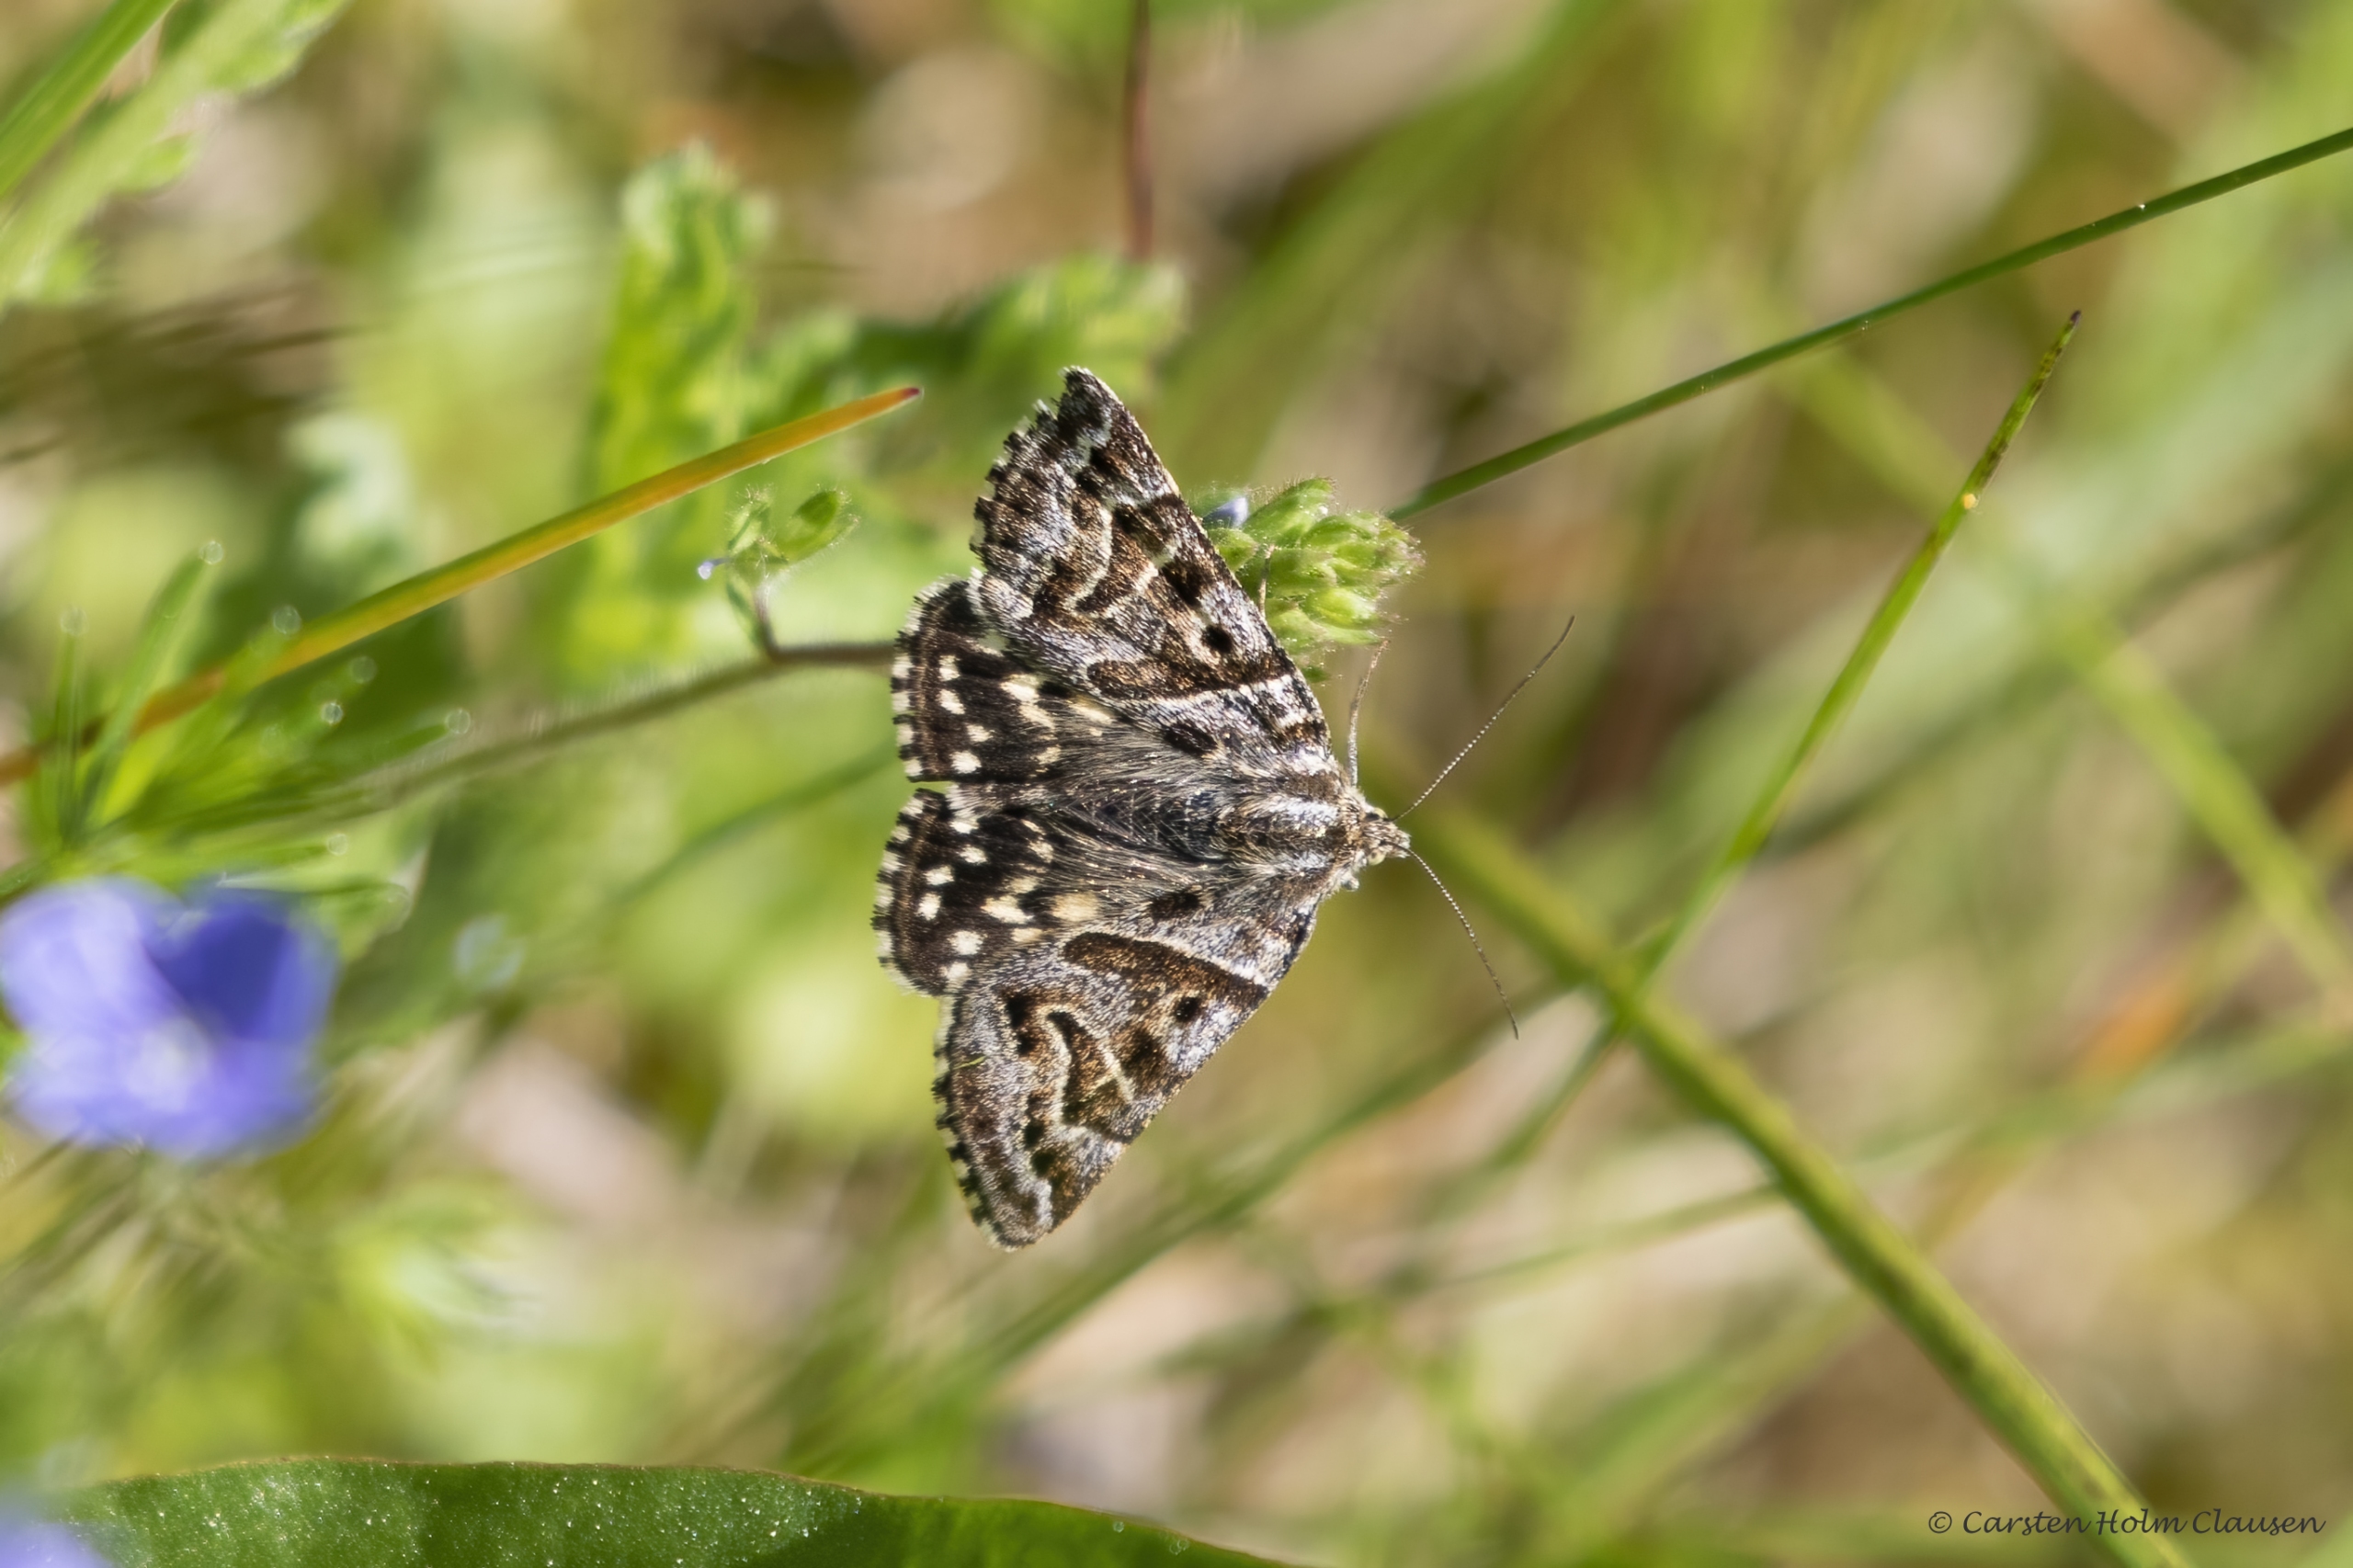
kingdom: Animalia
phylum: Arthropoda
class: Insecta
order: Lepidoptera
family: Erebidae
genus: Callistege
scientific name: Callistege mi
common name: Marmoreret kløverugle
